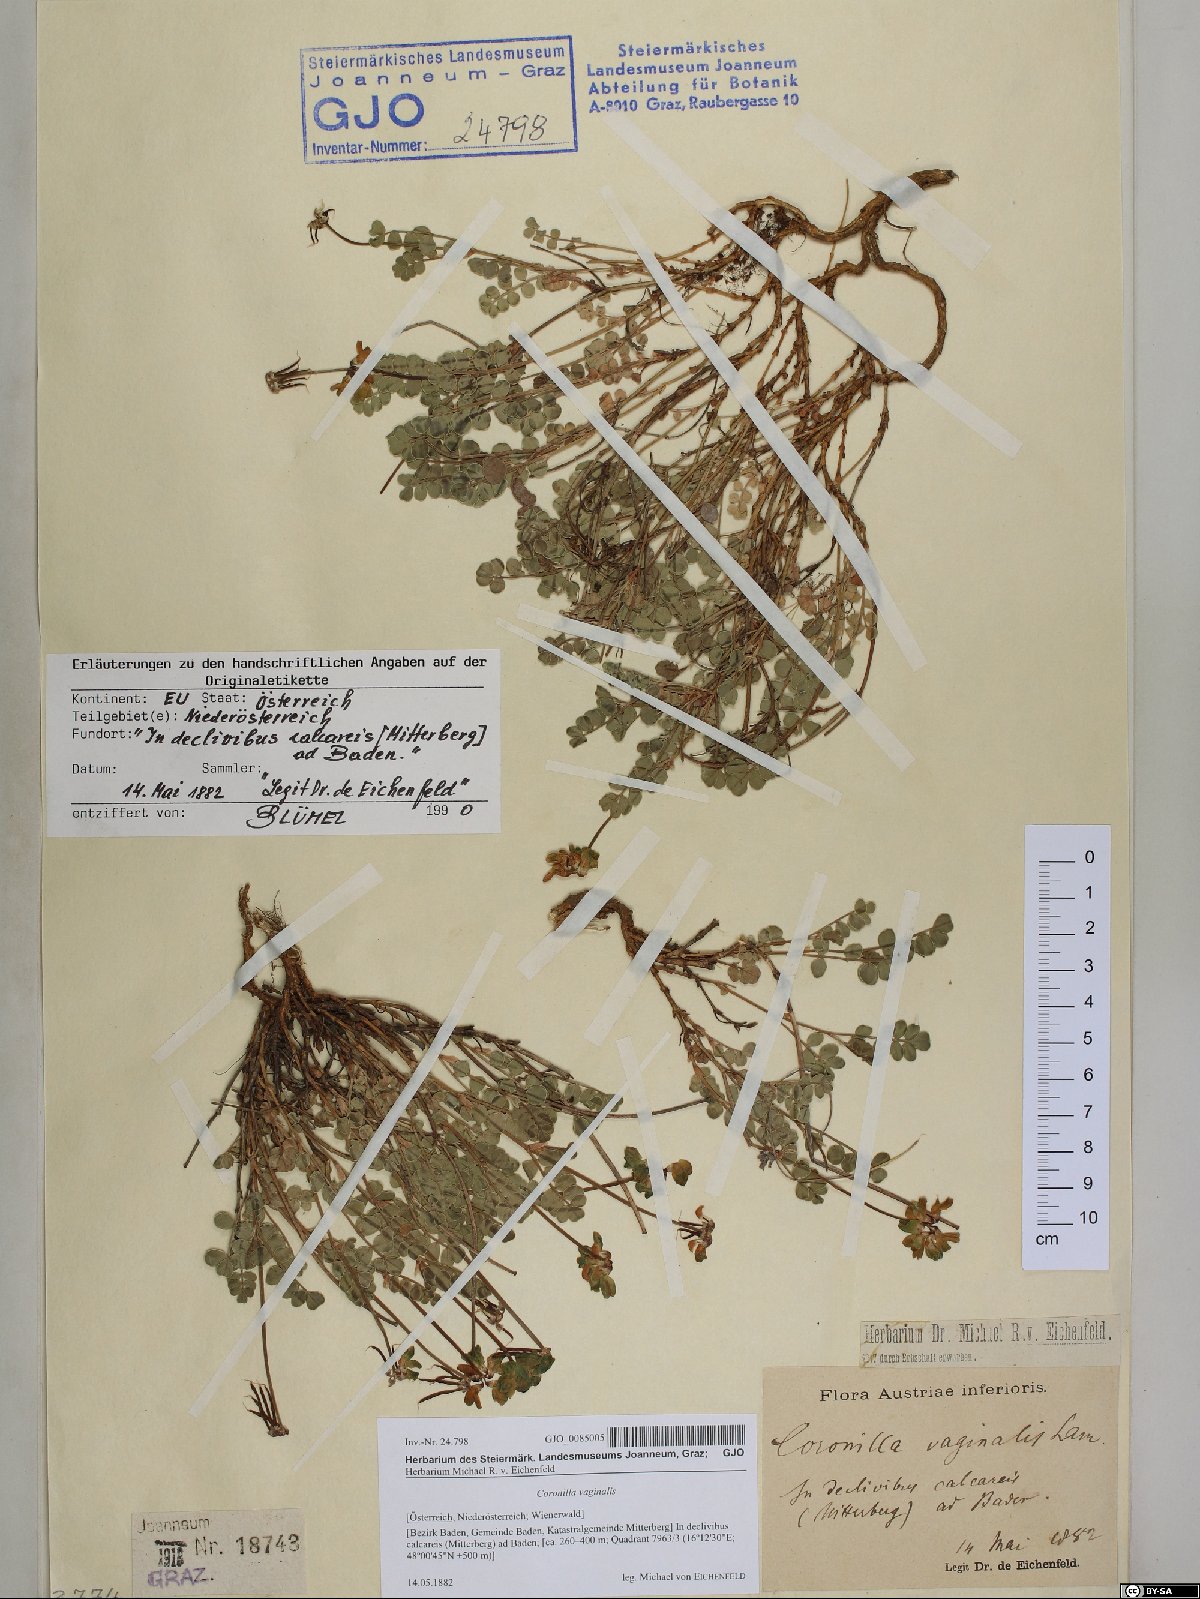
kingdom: Plantae
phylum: Tracheophyta
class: Magnoliopsida
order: Fabales
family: Fabaceae
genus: Coronilla
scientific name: Coronilla vaginalis
